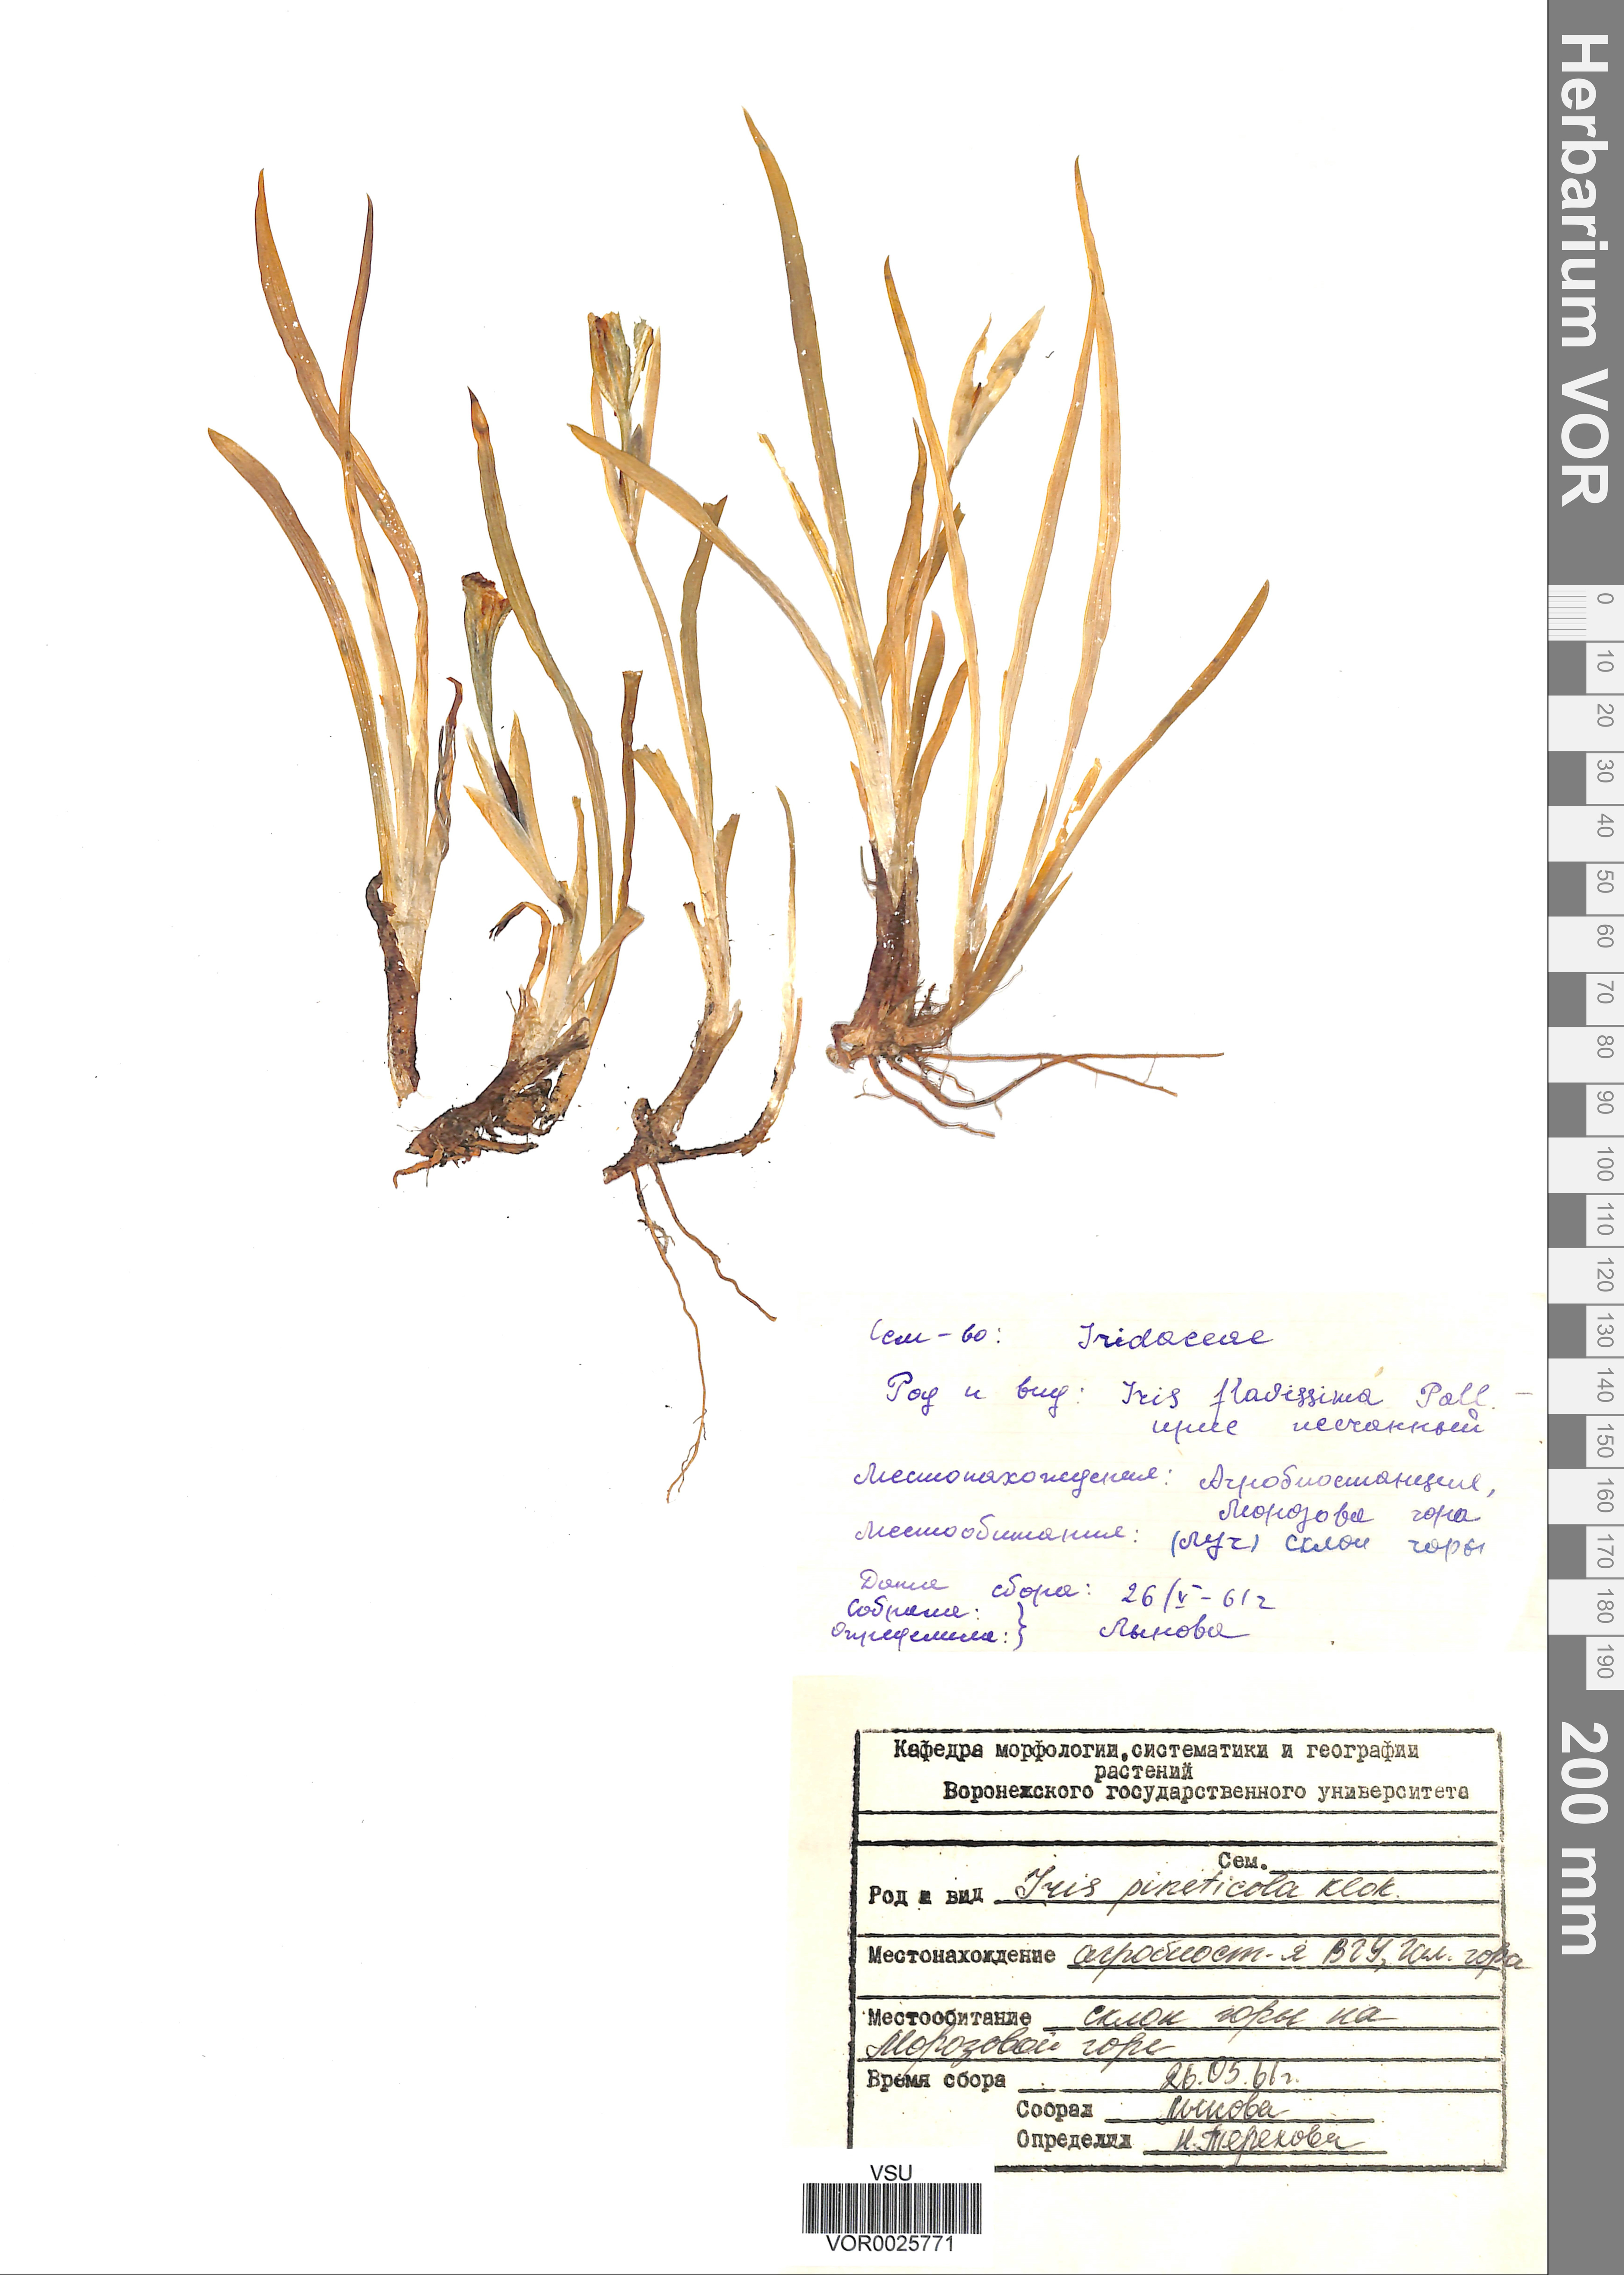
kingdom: Plantae
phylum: Tracheophyta
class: Liliopsida
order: Asparagales
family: Iridaceae
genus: Iris
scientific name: Iris arenaria
